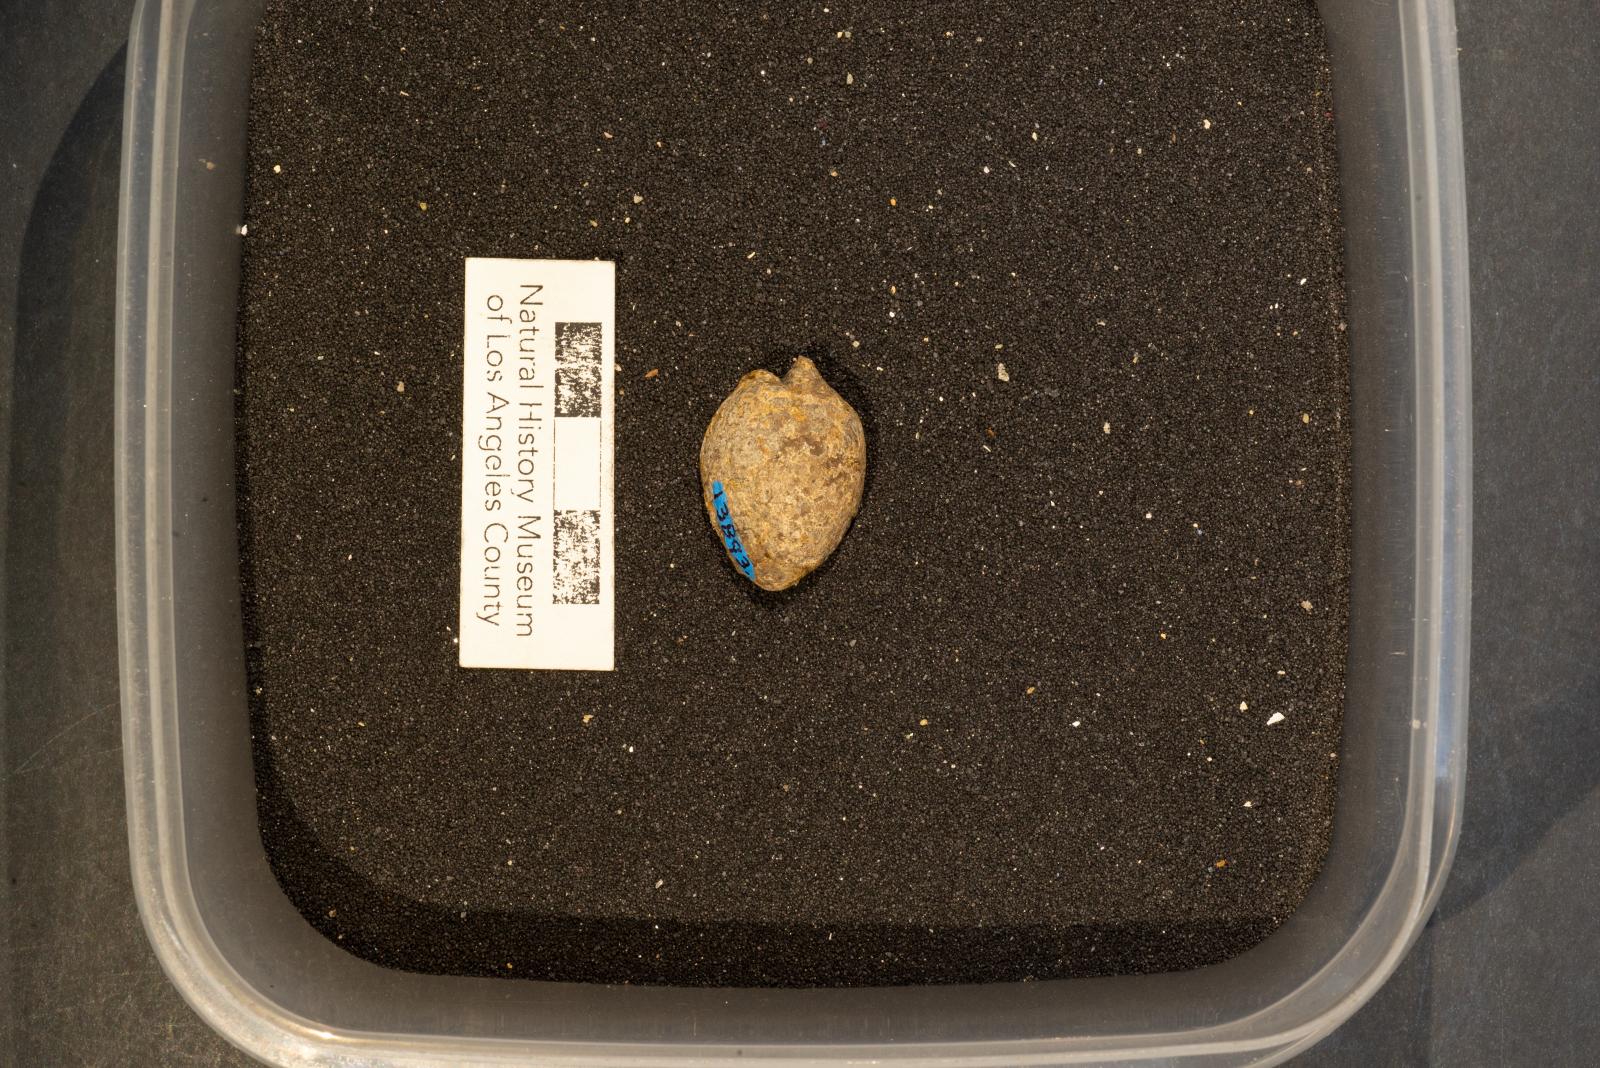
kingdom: Animalia
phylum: Mollusca
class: Gastropoda
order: Littorinimorpha
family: Cypraeidae
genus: Protocypraea
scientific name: Protocypraea
